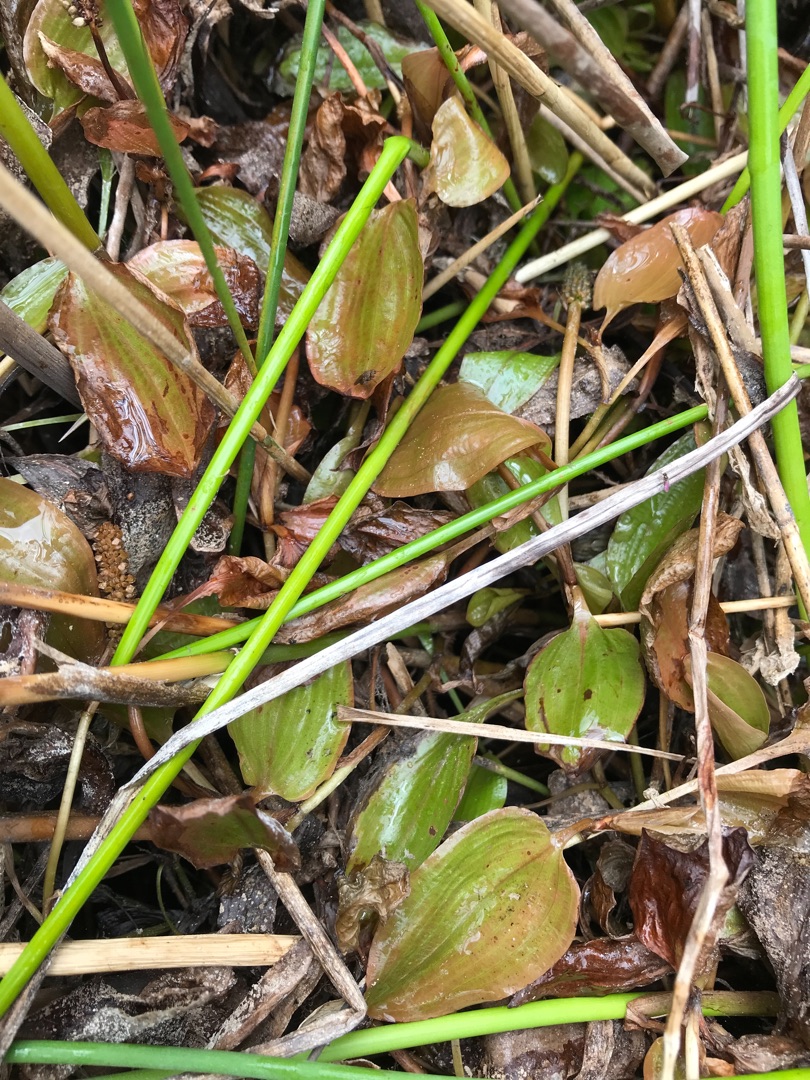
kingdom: Plantae
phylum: Tracheophyta
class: Liliopsida
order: Alismatales
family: Potamogetonaceae
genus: Potamogeton
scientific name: Potamogeton coloratus
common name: Vejbred-vandaks
